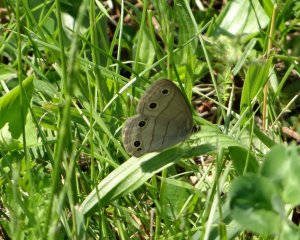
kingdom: Animalia
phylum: Arthropoda
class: Insecta
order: Lepidoptera
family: Nymphalidae
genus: Euptychia
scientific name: Euptychia cymela
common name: Little Wood Satyr
